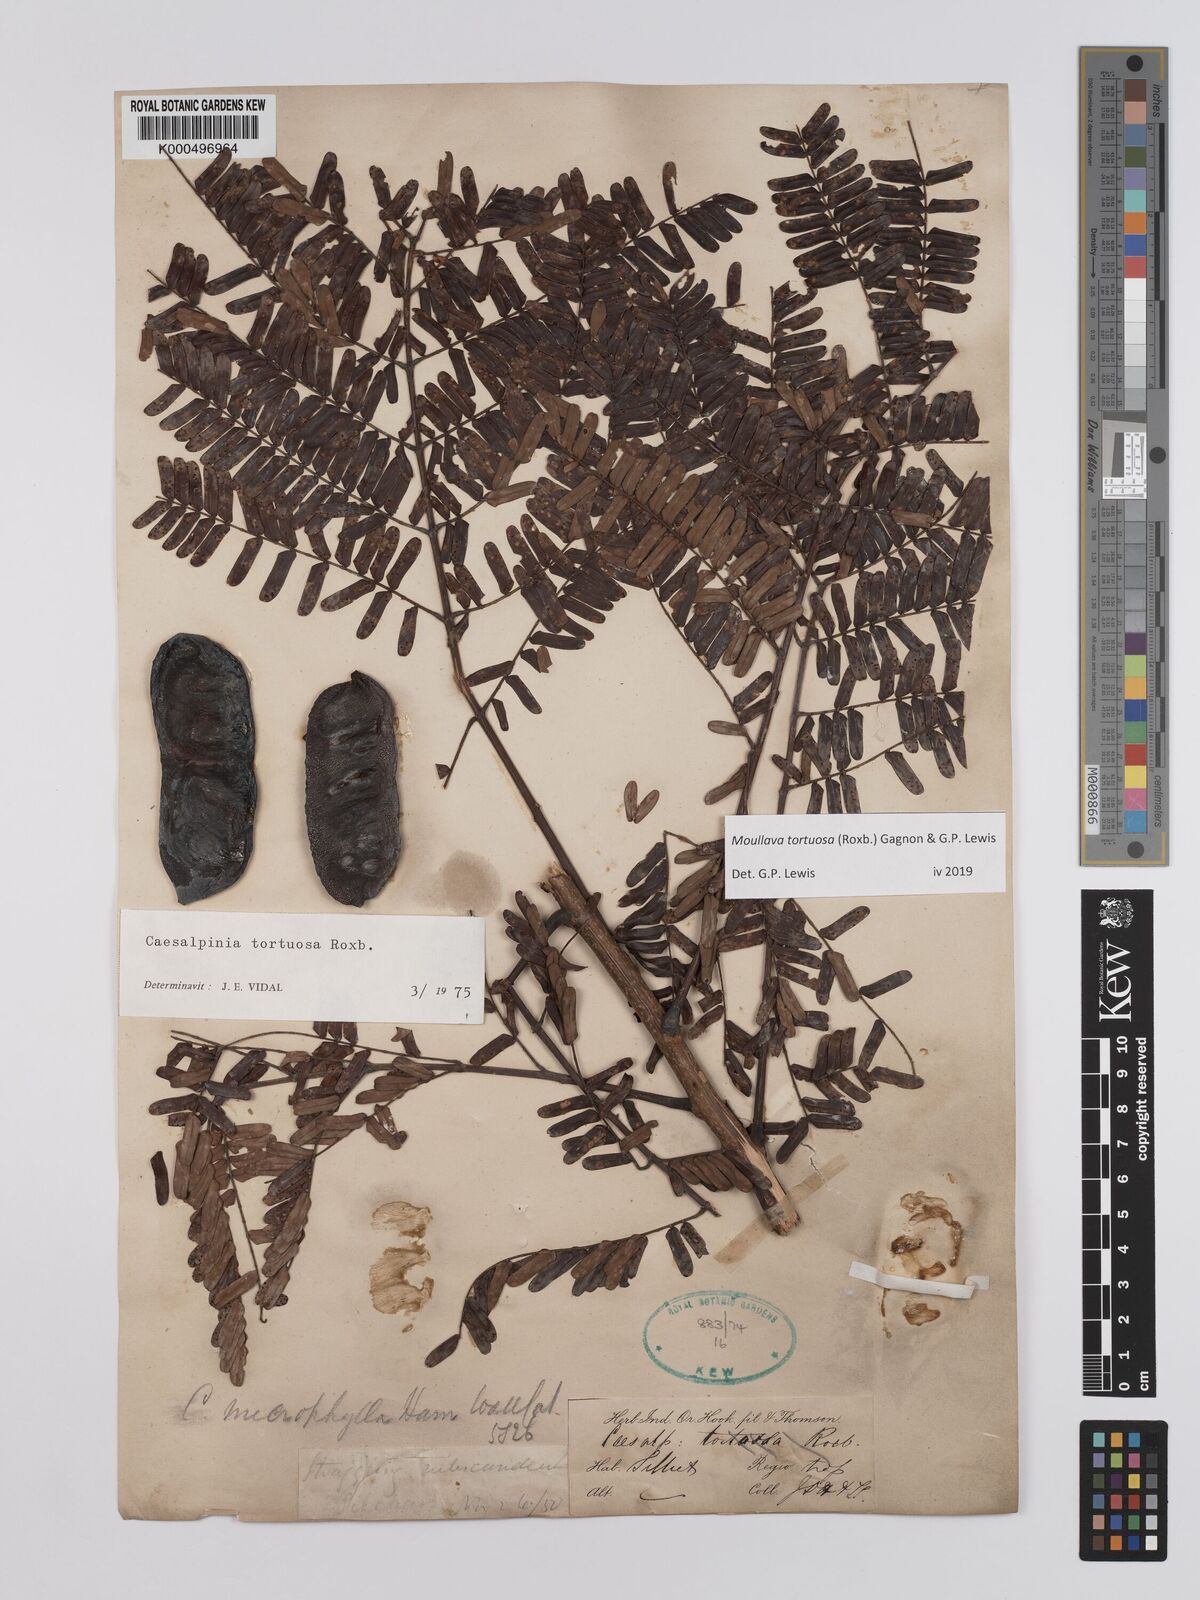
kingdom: Plantae
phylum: Tracheophyta
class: Magnoliopsida
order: Fabales
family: Fabaceae
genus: Moullava
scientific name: Moullava tortuosa
